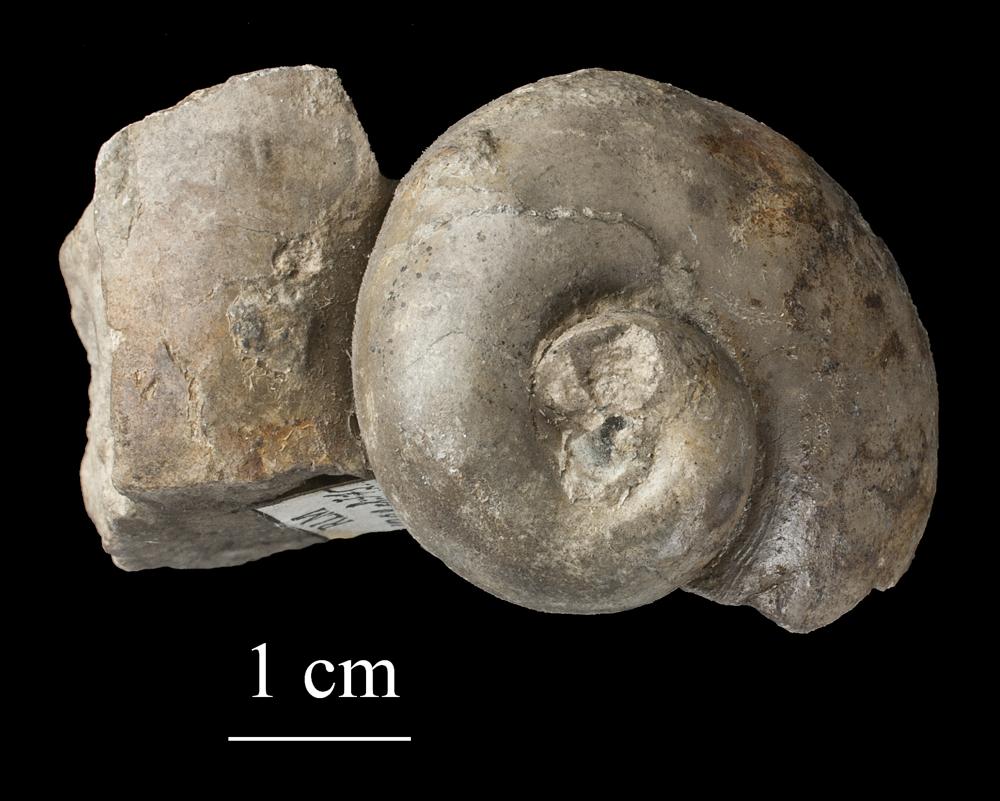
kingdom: Animalia
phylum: Mollusca
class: Gastropoda
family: Holopeidae
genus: Holopea
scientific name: Holopea ampullacea
